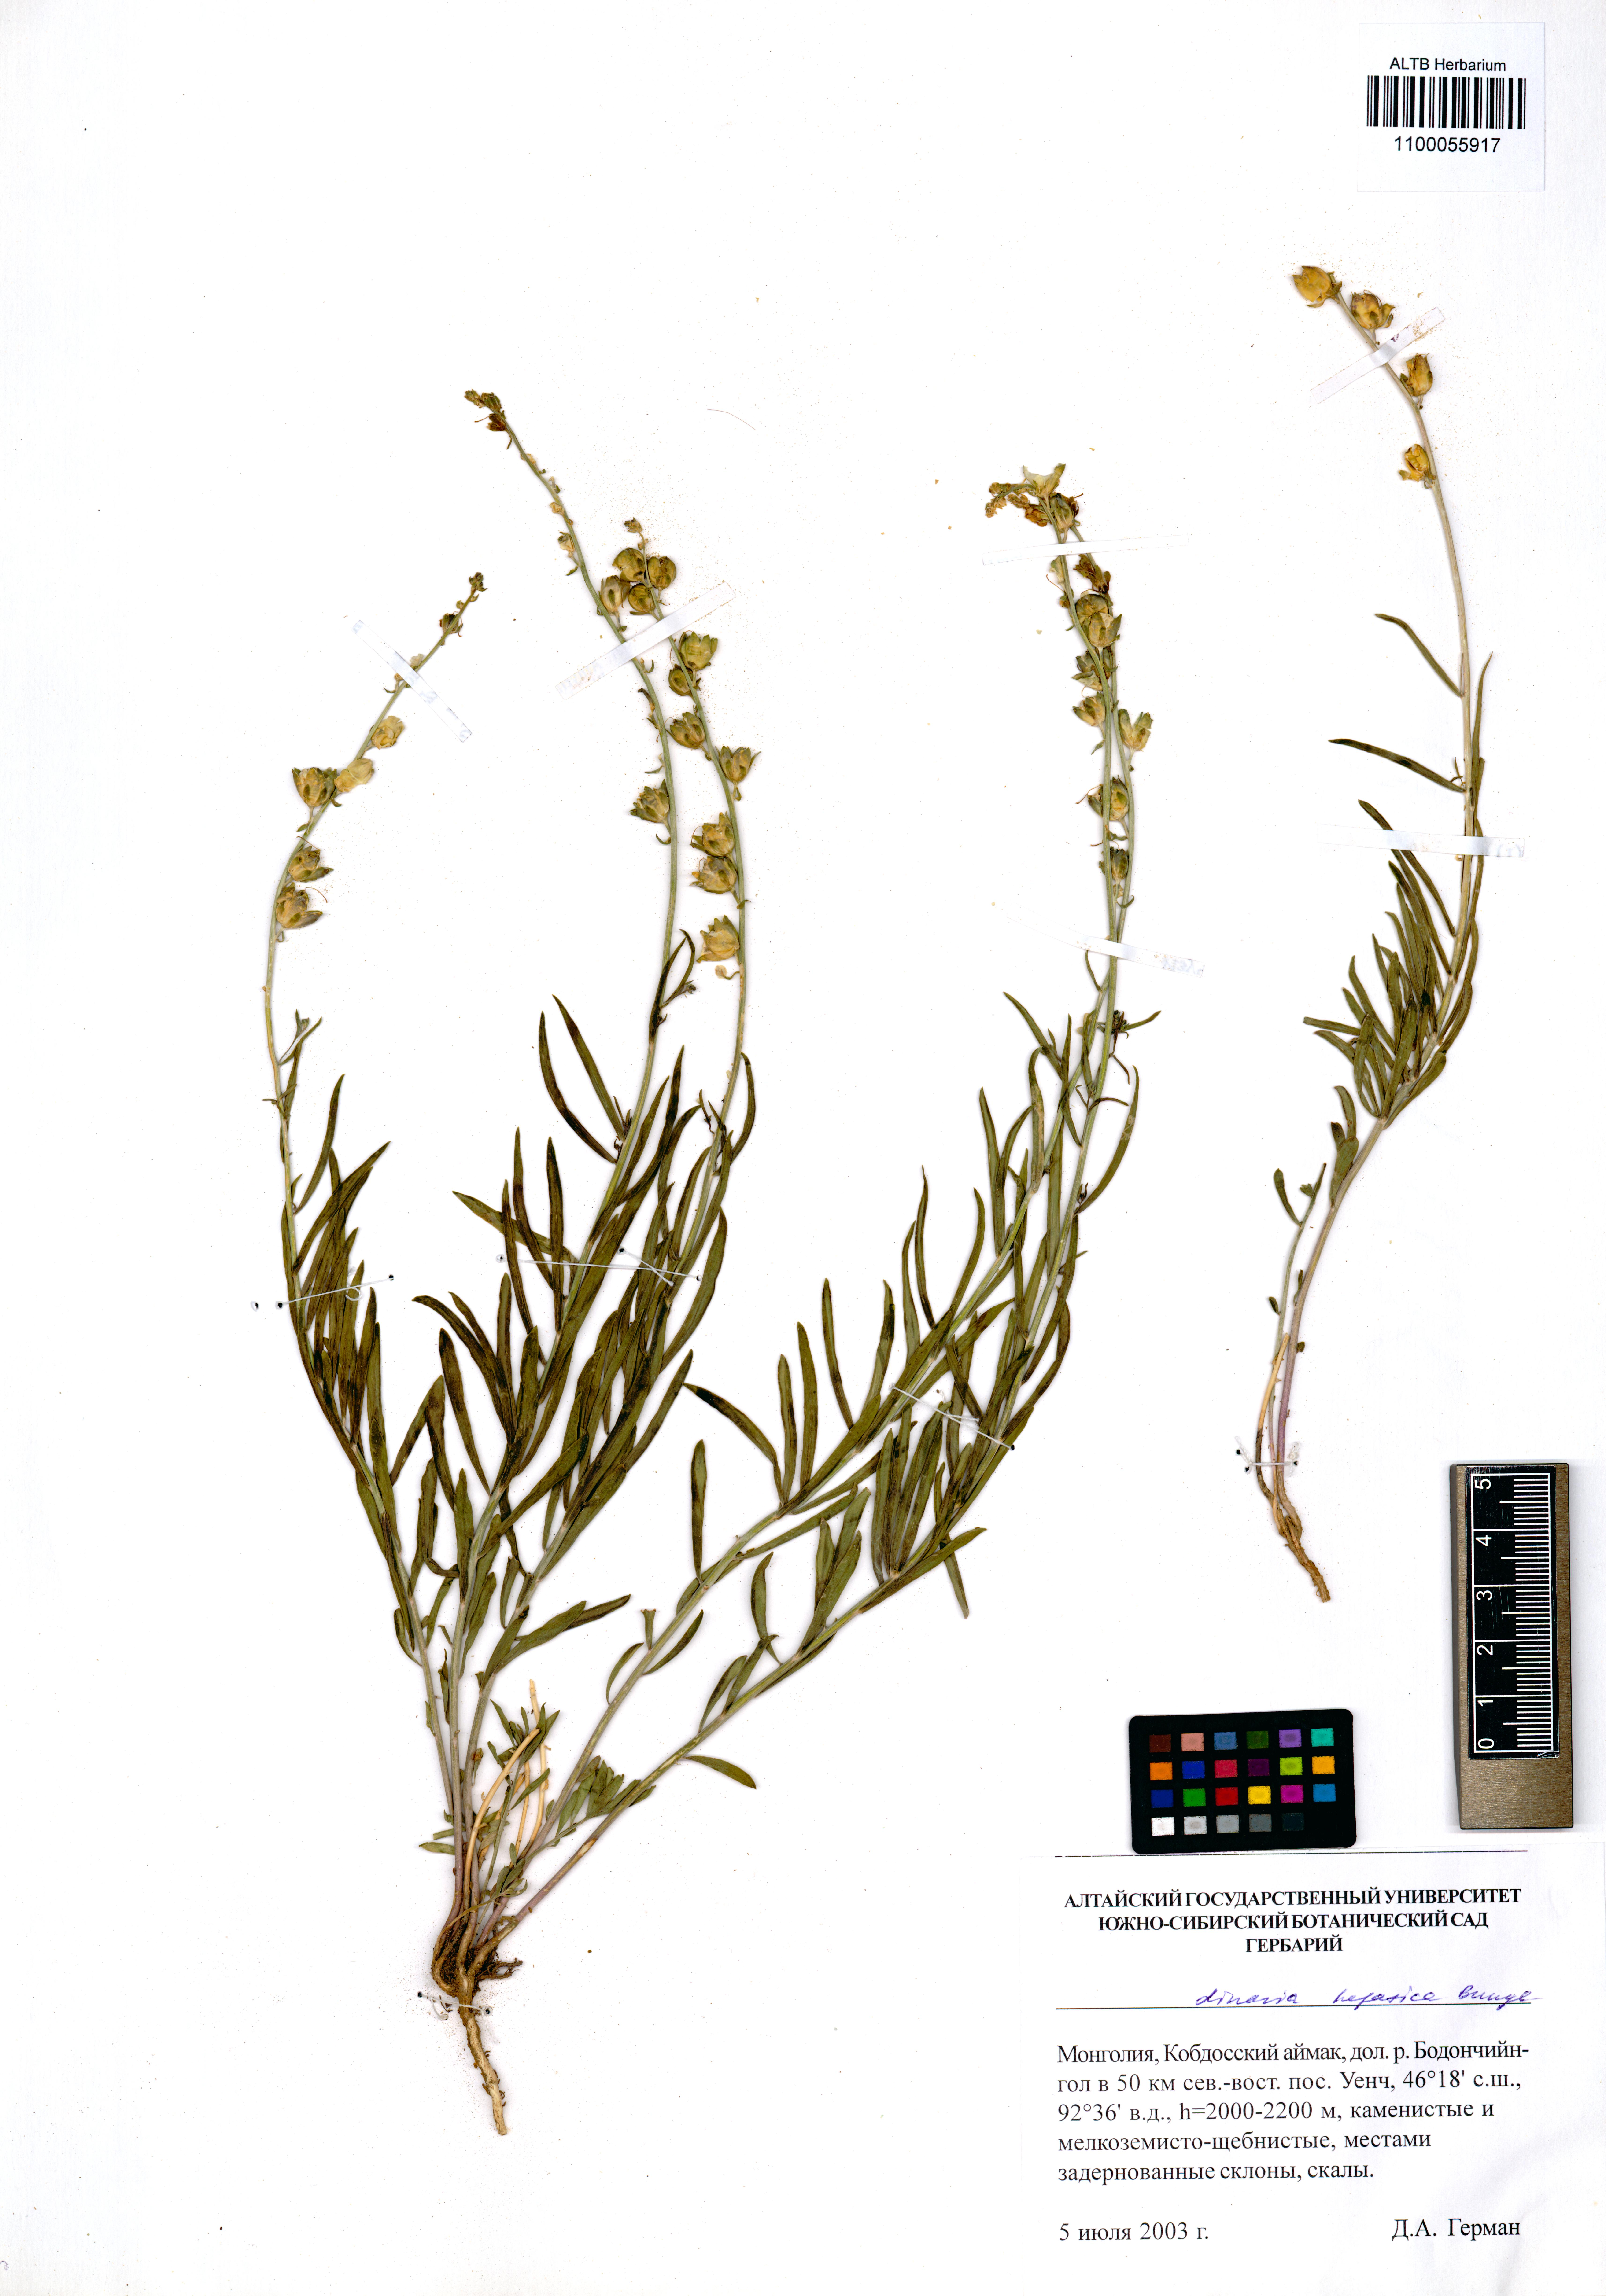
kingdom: Plantae
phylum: Tracheophyta
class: Magnoliopsida
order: Lamiales
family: Plantaginaceae
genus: Linaria
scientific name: Linaria hepatica
